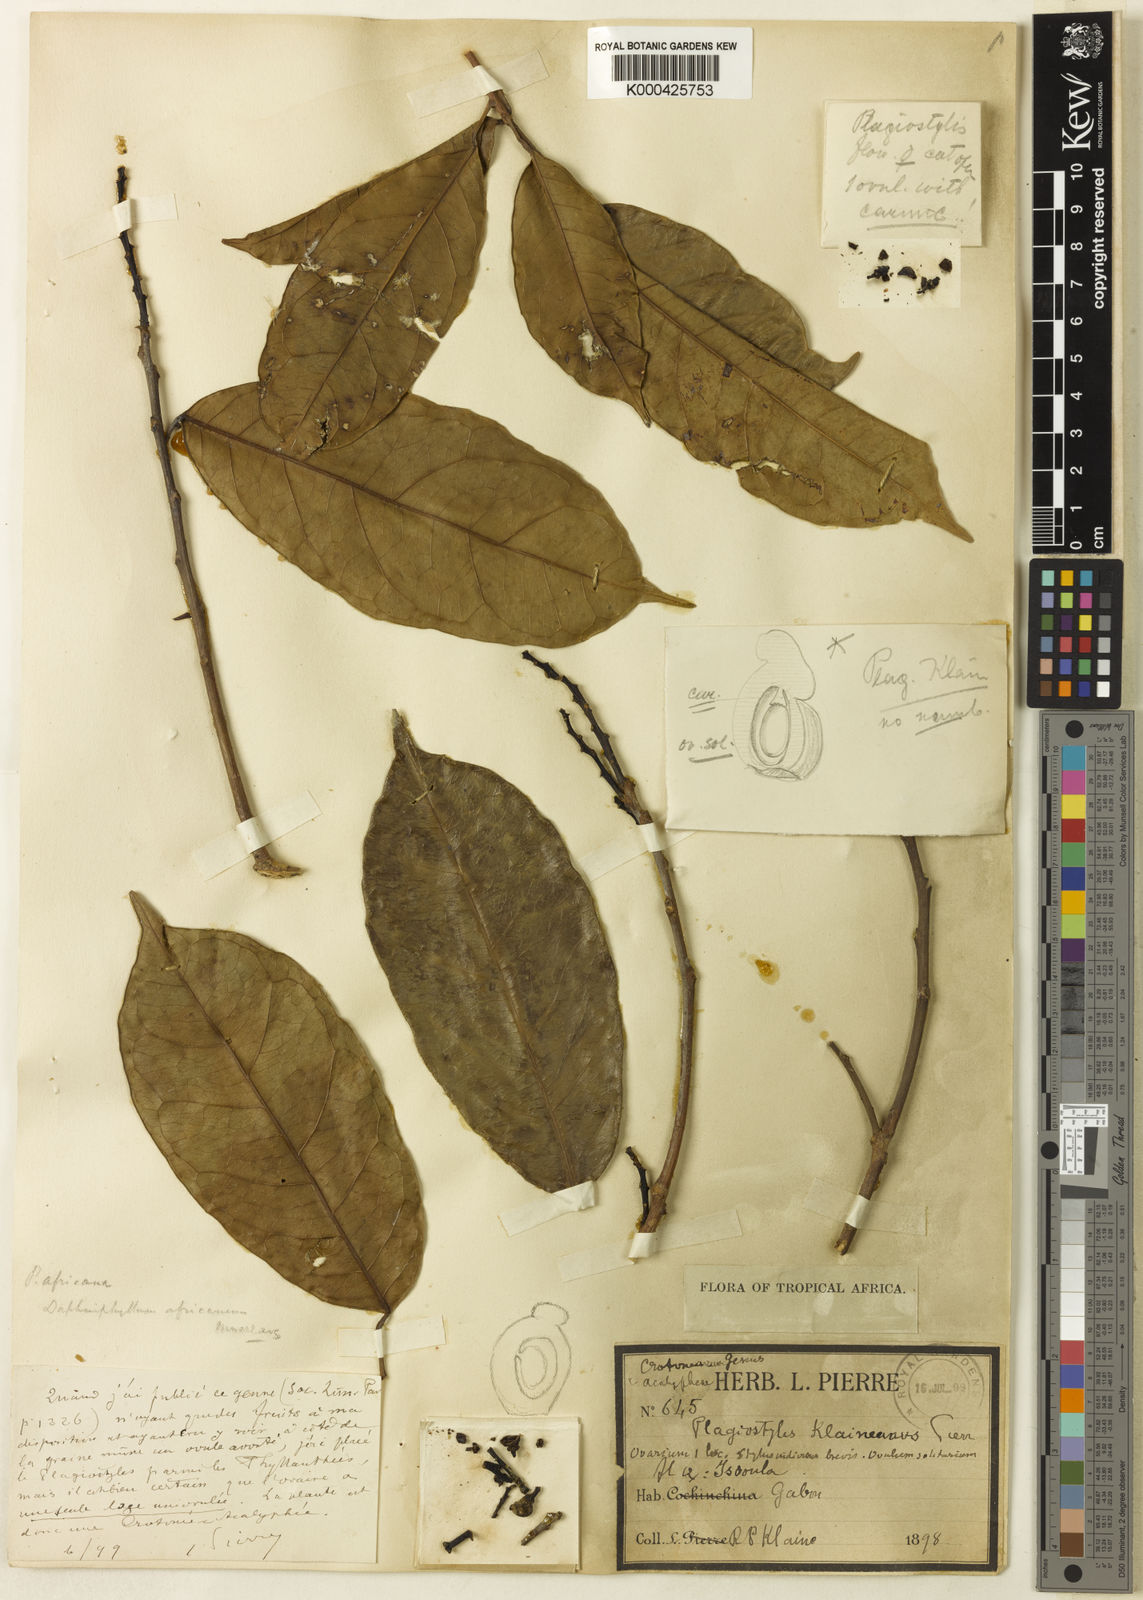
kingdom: Plantae
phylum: Tracheophyta
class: Magnoliopsida
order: Malpighiales
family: Euphorbiaceae
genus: Plagiostyles
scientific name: Plagiostyles
